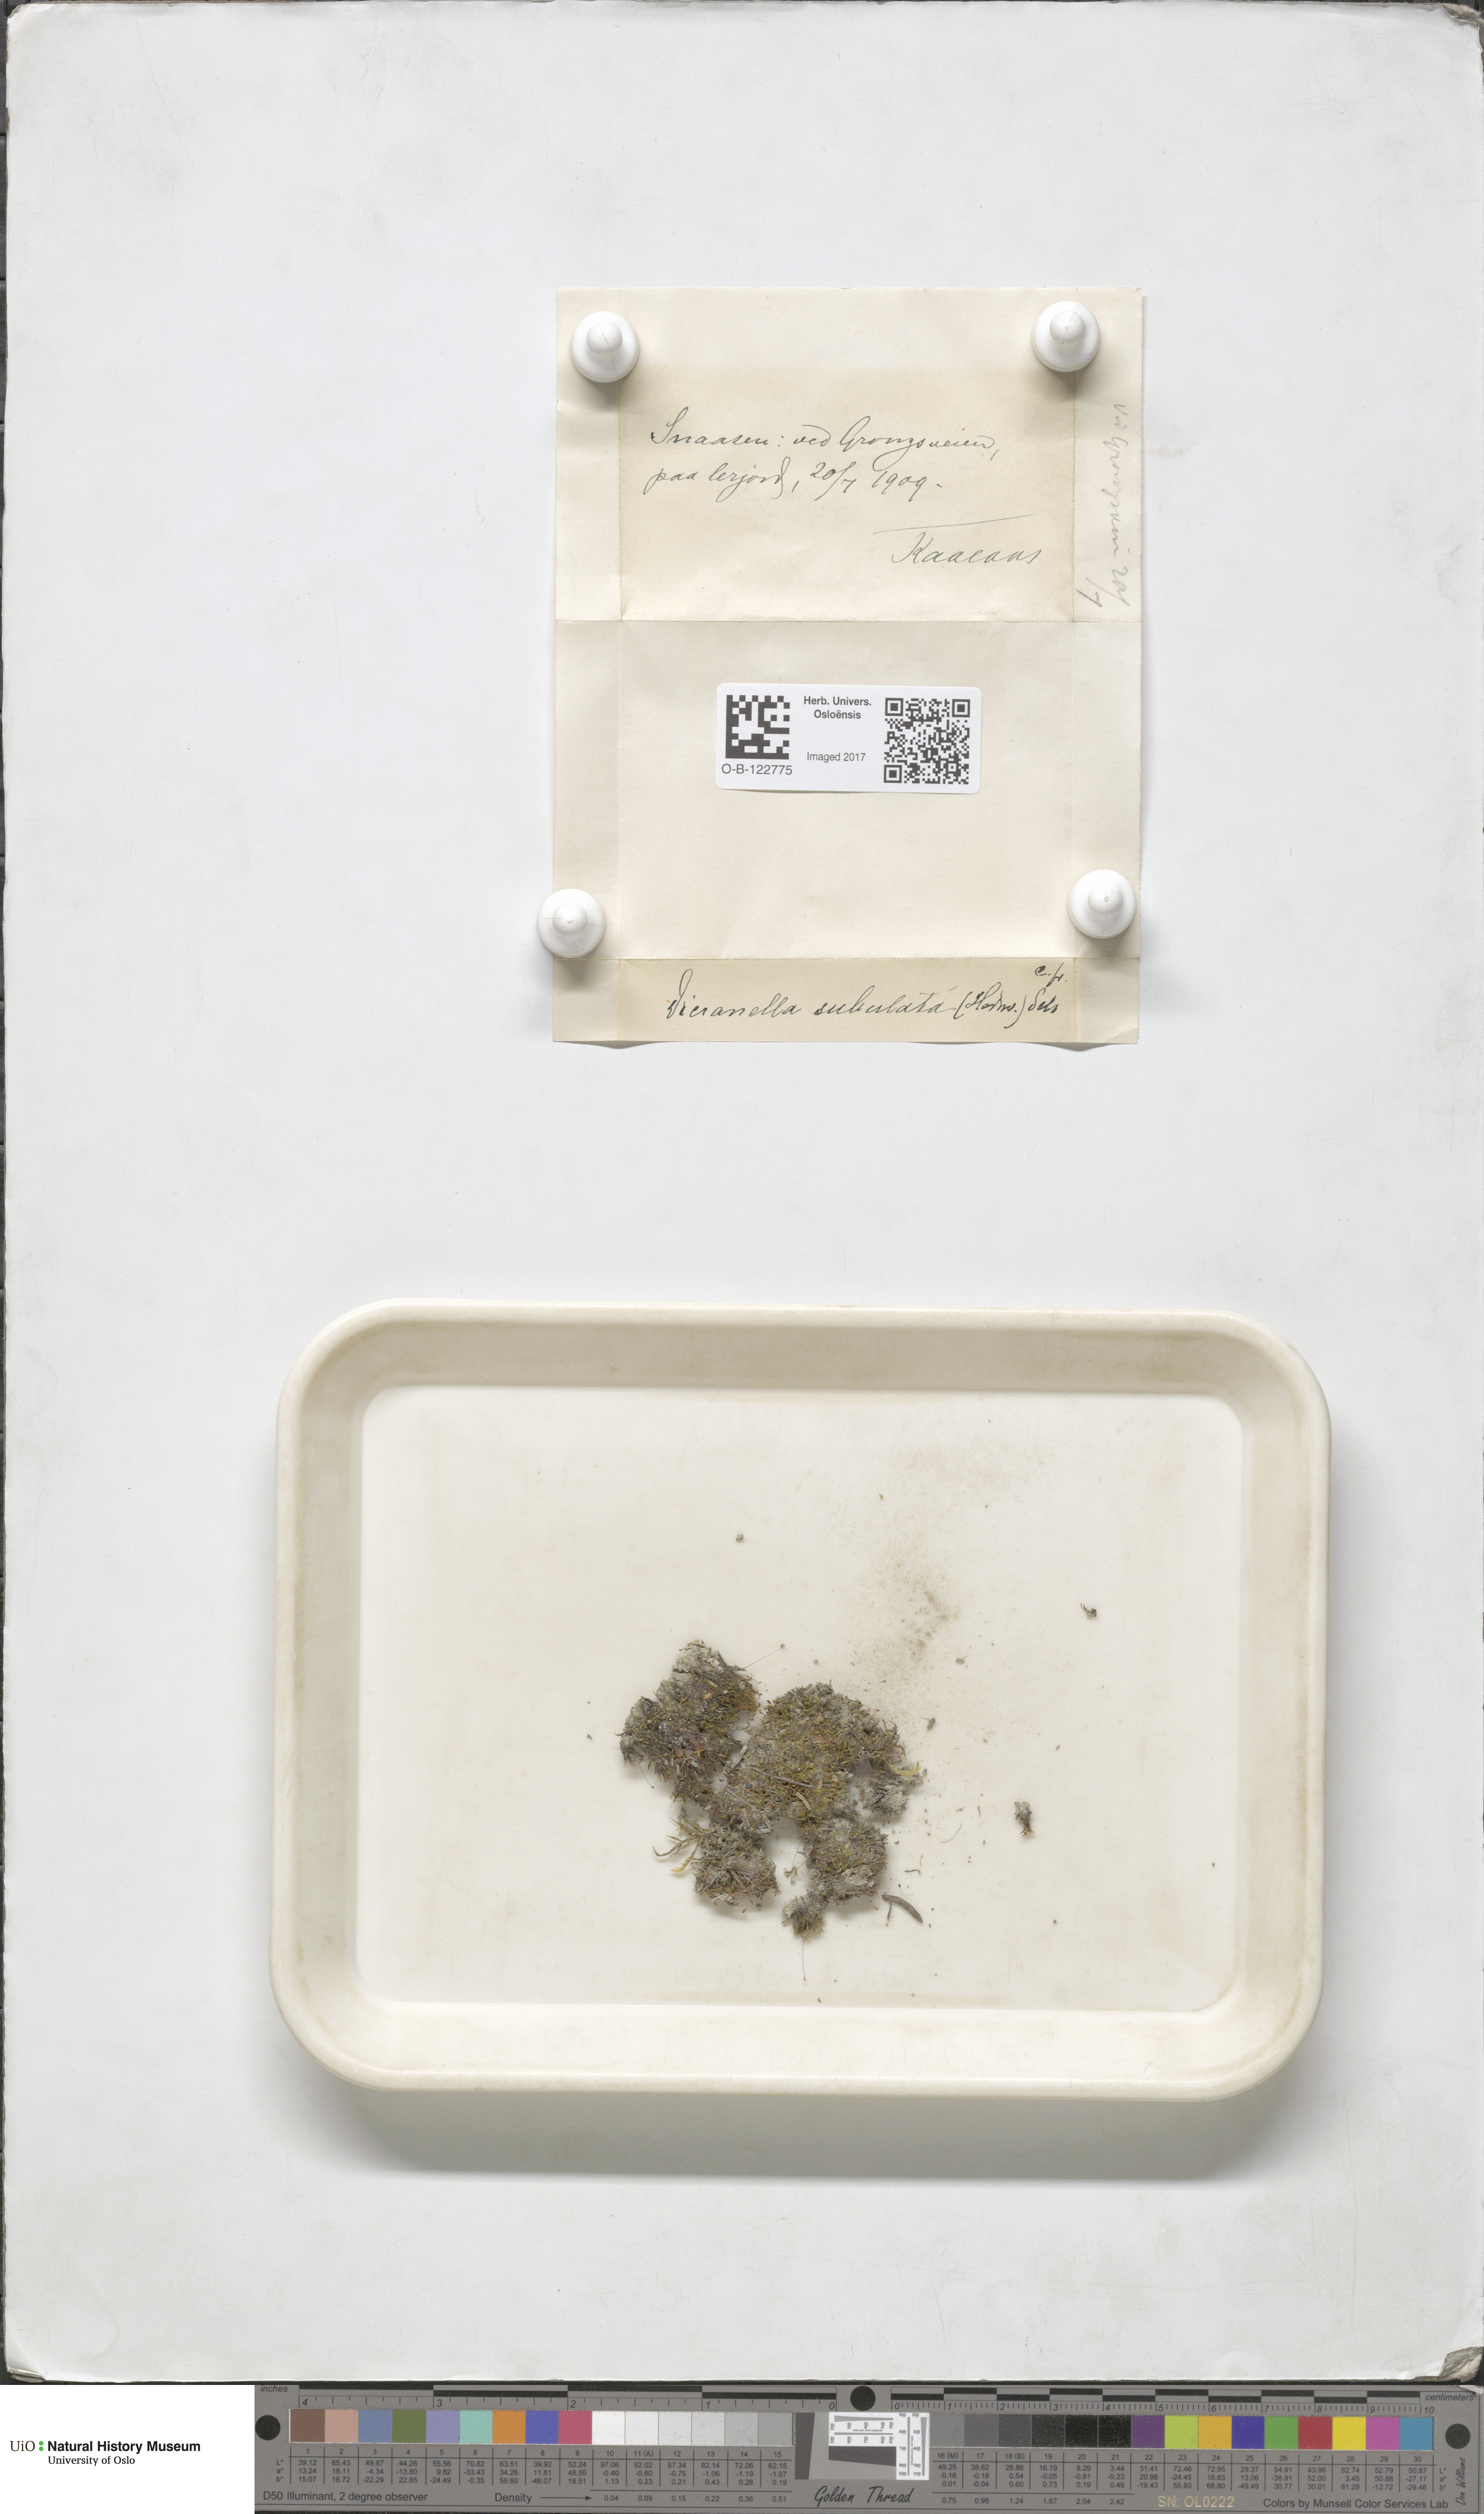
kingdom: Plantae
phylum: Bryophyta
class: Bryopsida
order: Dicranales
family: Dicranellaceae
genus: Dicranella
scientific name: Dicranella subulata
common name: Awl-leaved forklet moss
